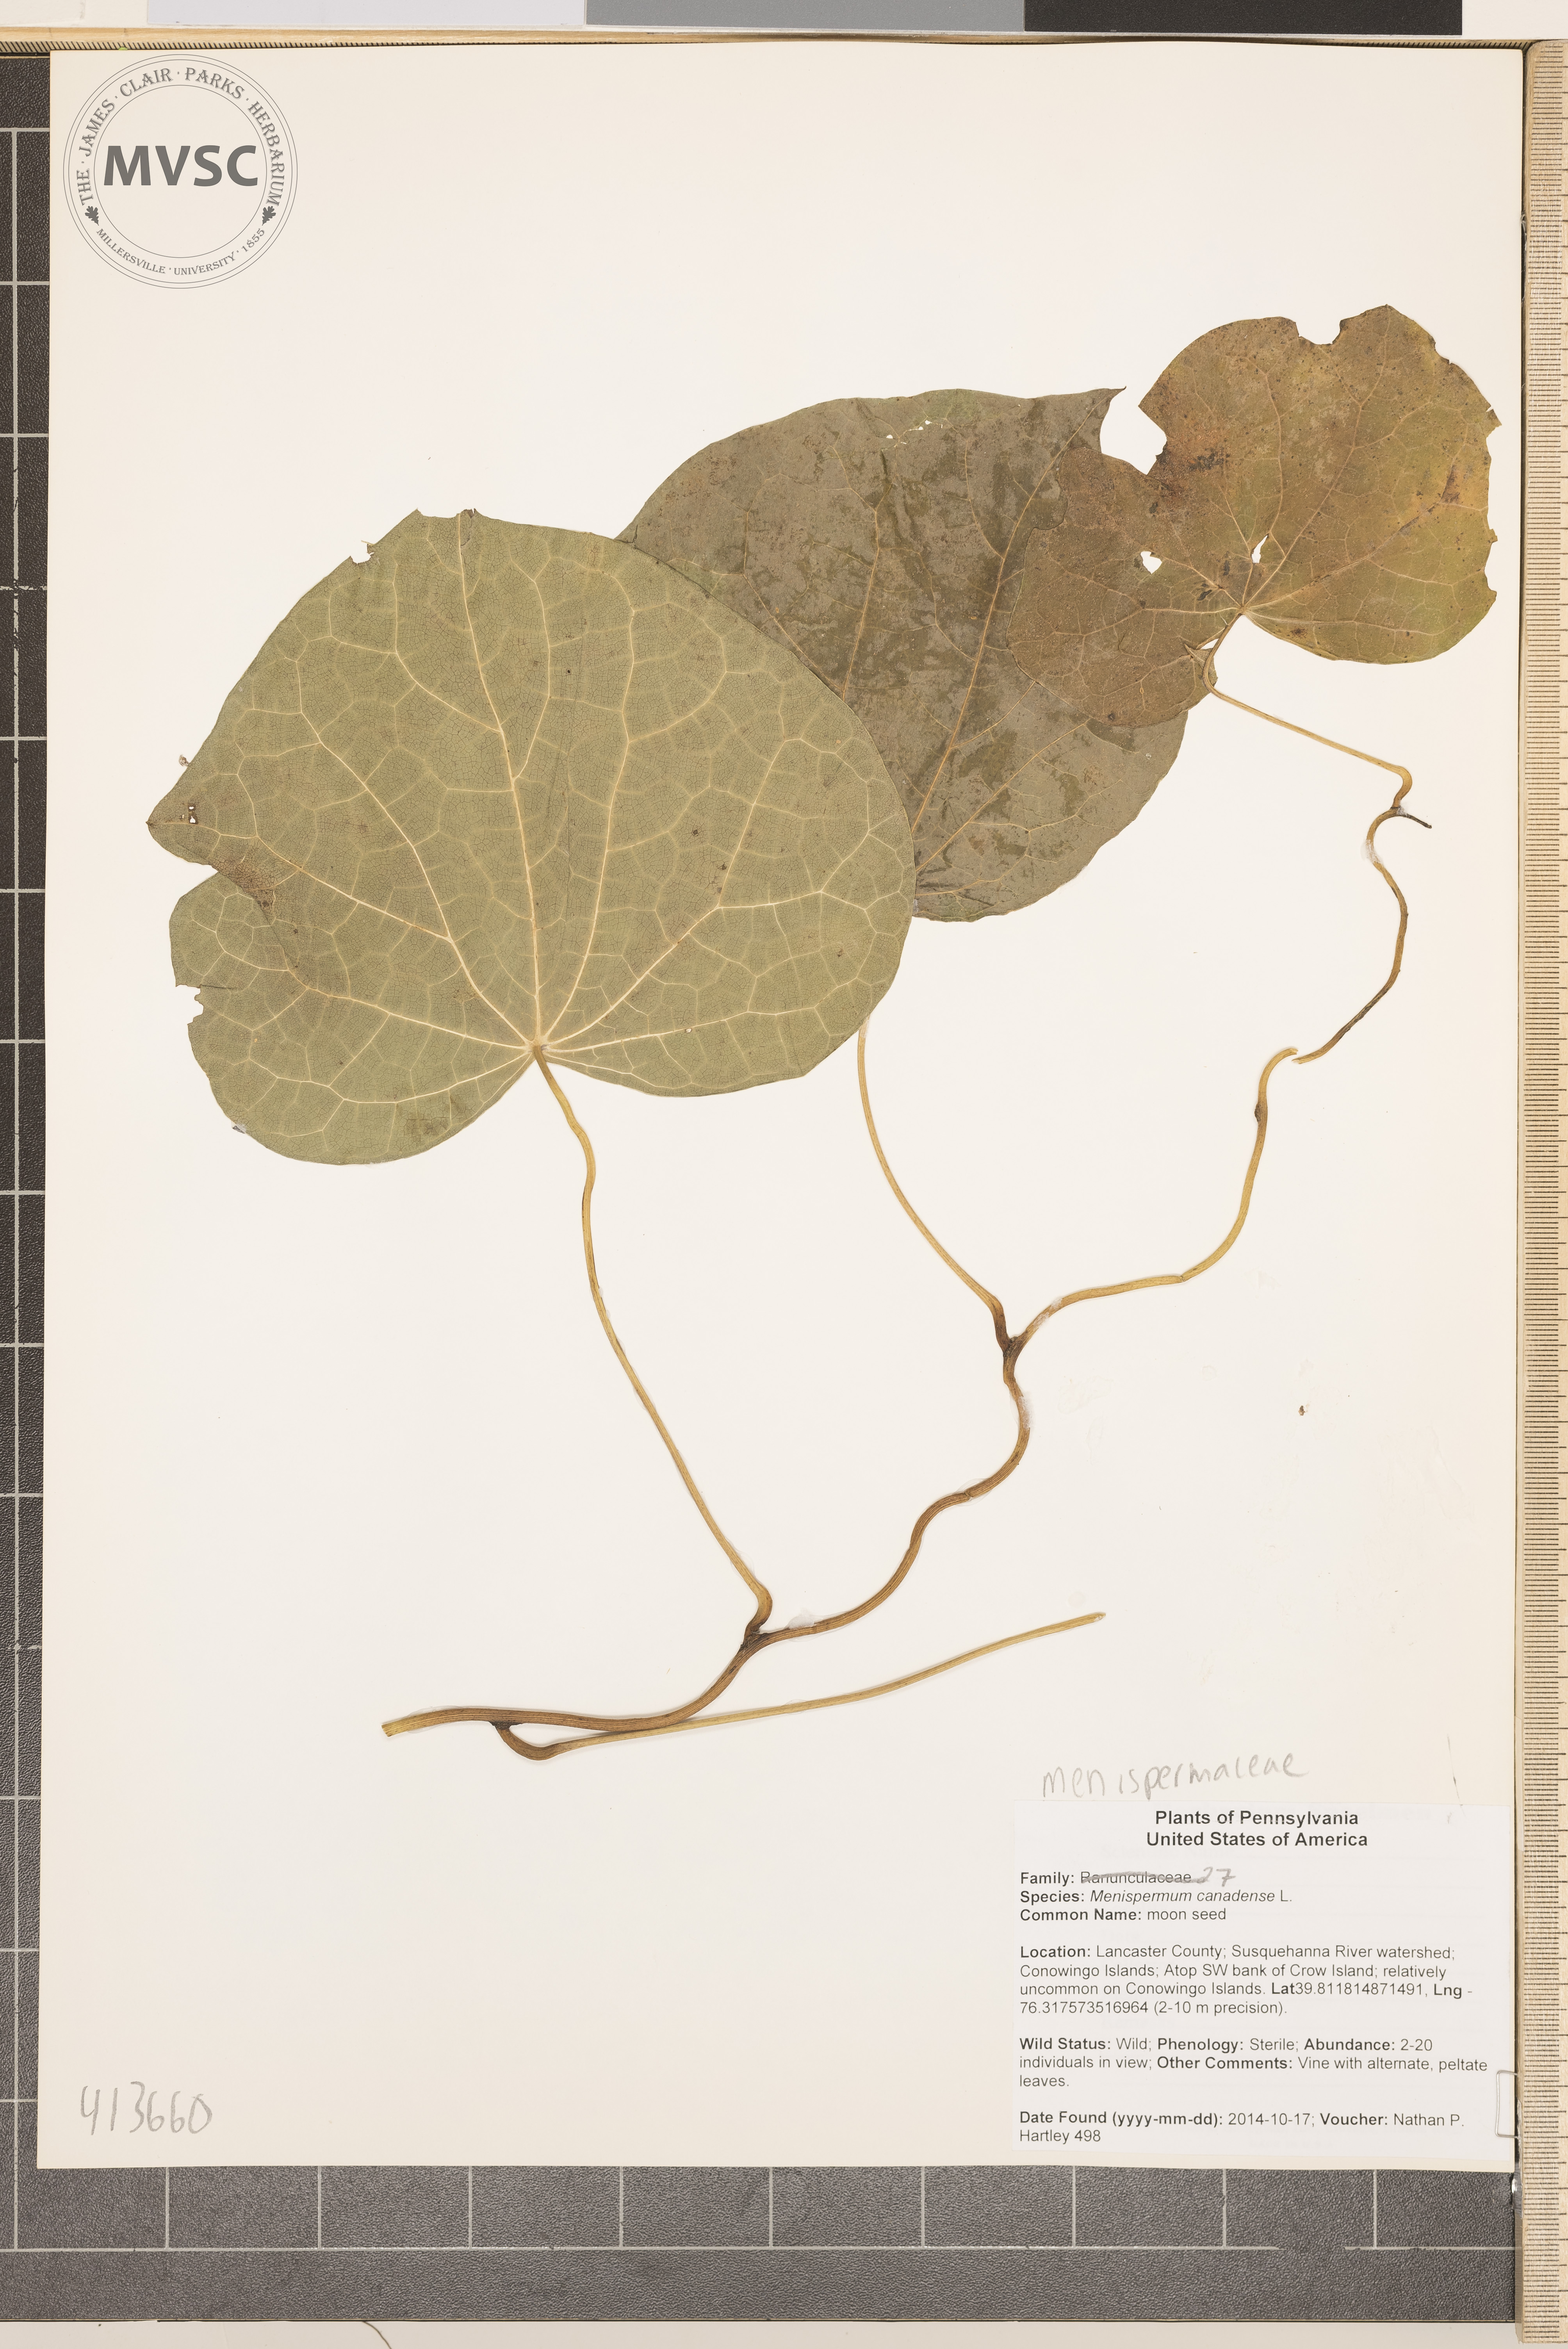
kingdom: Plantae
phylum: Tracheophyta
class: Magnoliopsida
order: Ranunculales
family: Menispermaceae
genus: Menispermum
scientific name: Menispermum canadense
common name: moonseed
